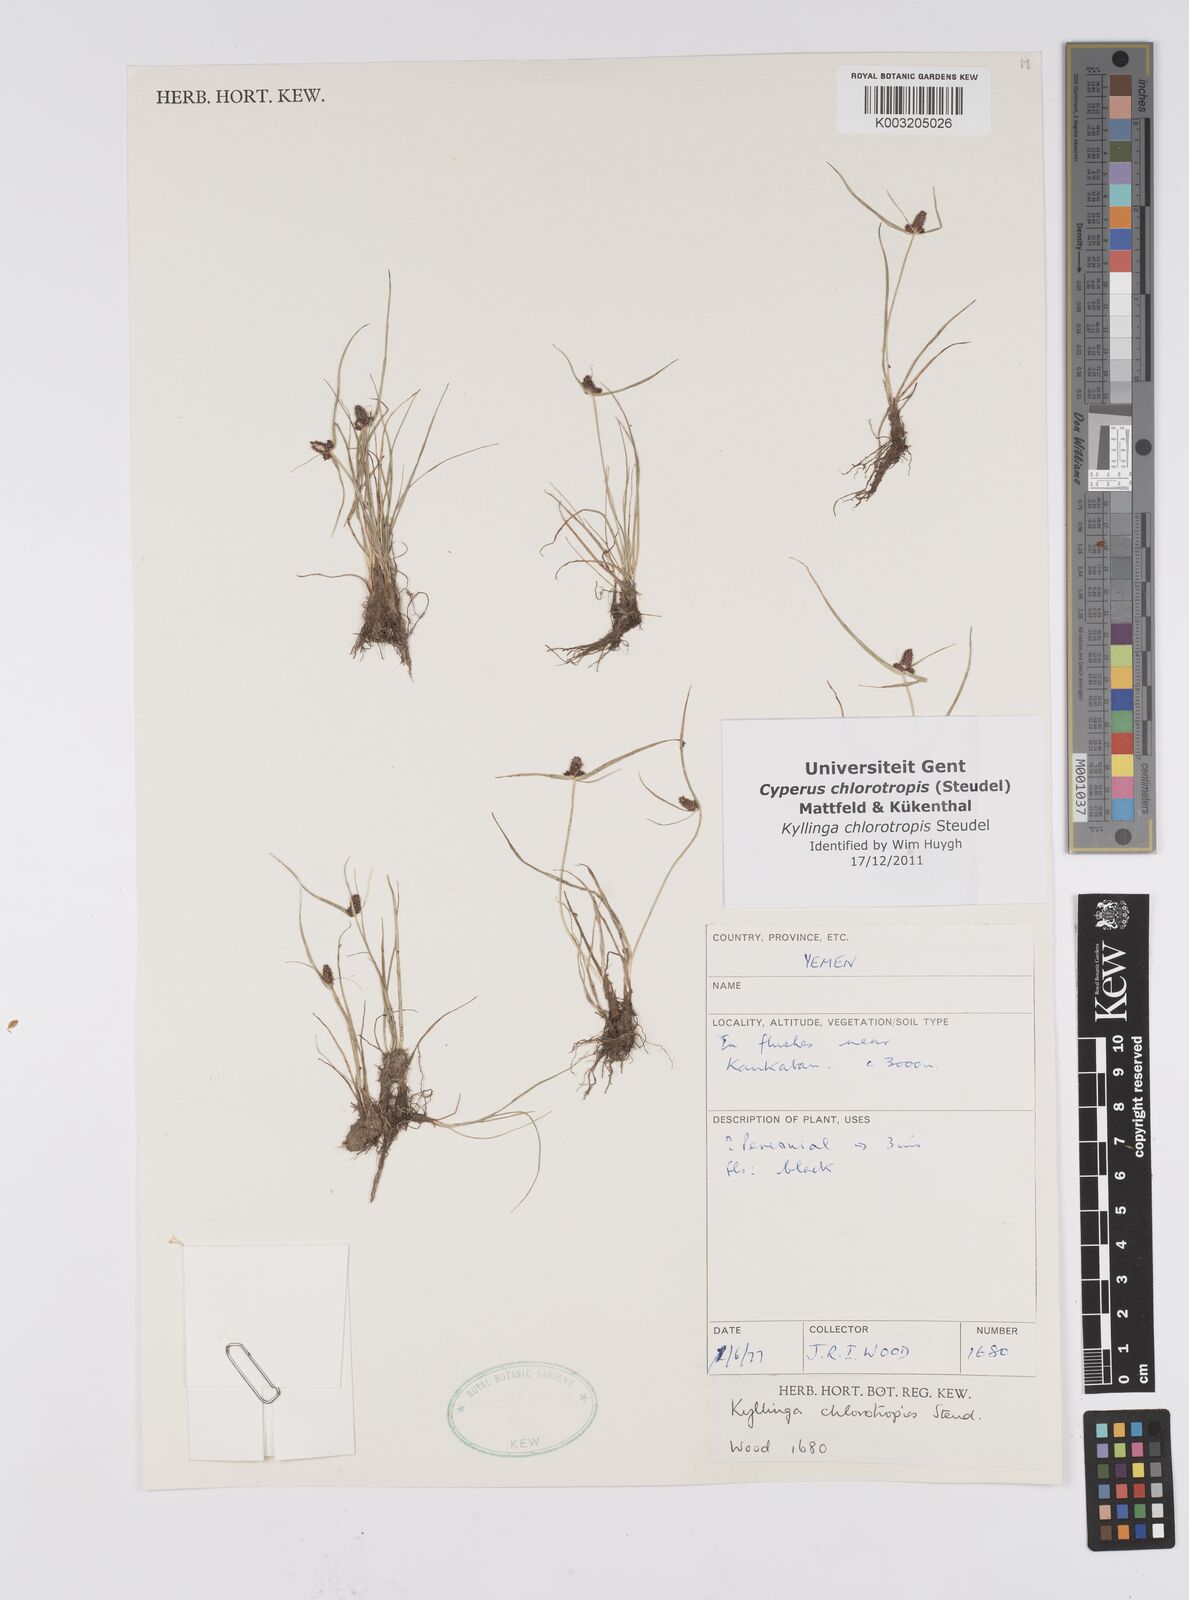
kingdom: Plantae
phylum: Tracheophyta
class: Liliopsida
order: Poales
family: Cyperaceae
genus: Cyperus
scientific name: Cyperus chlorotropis
